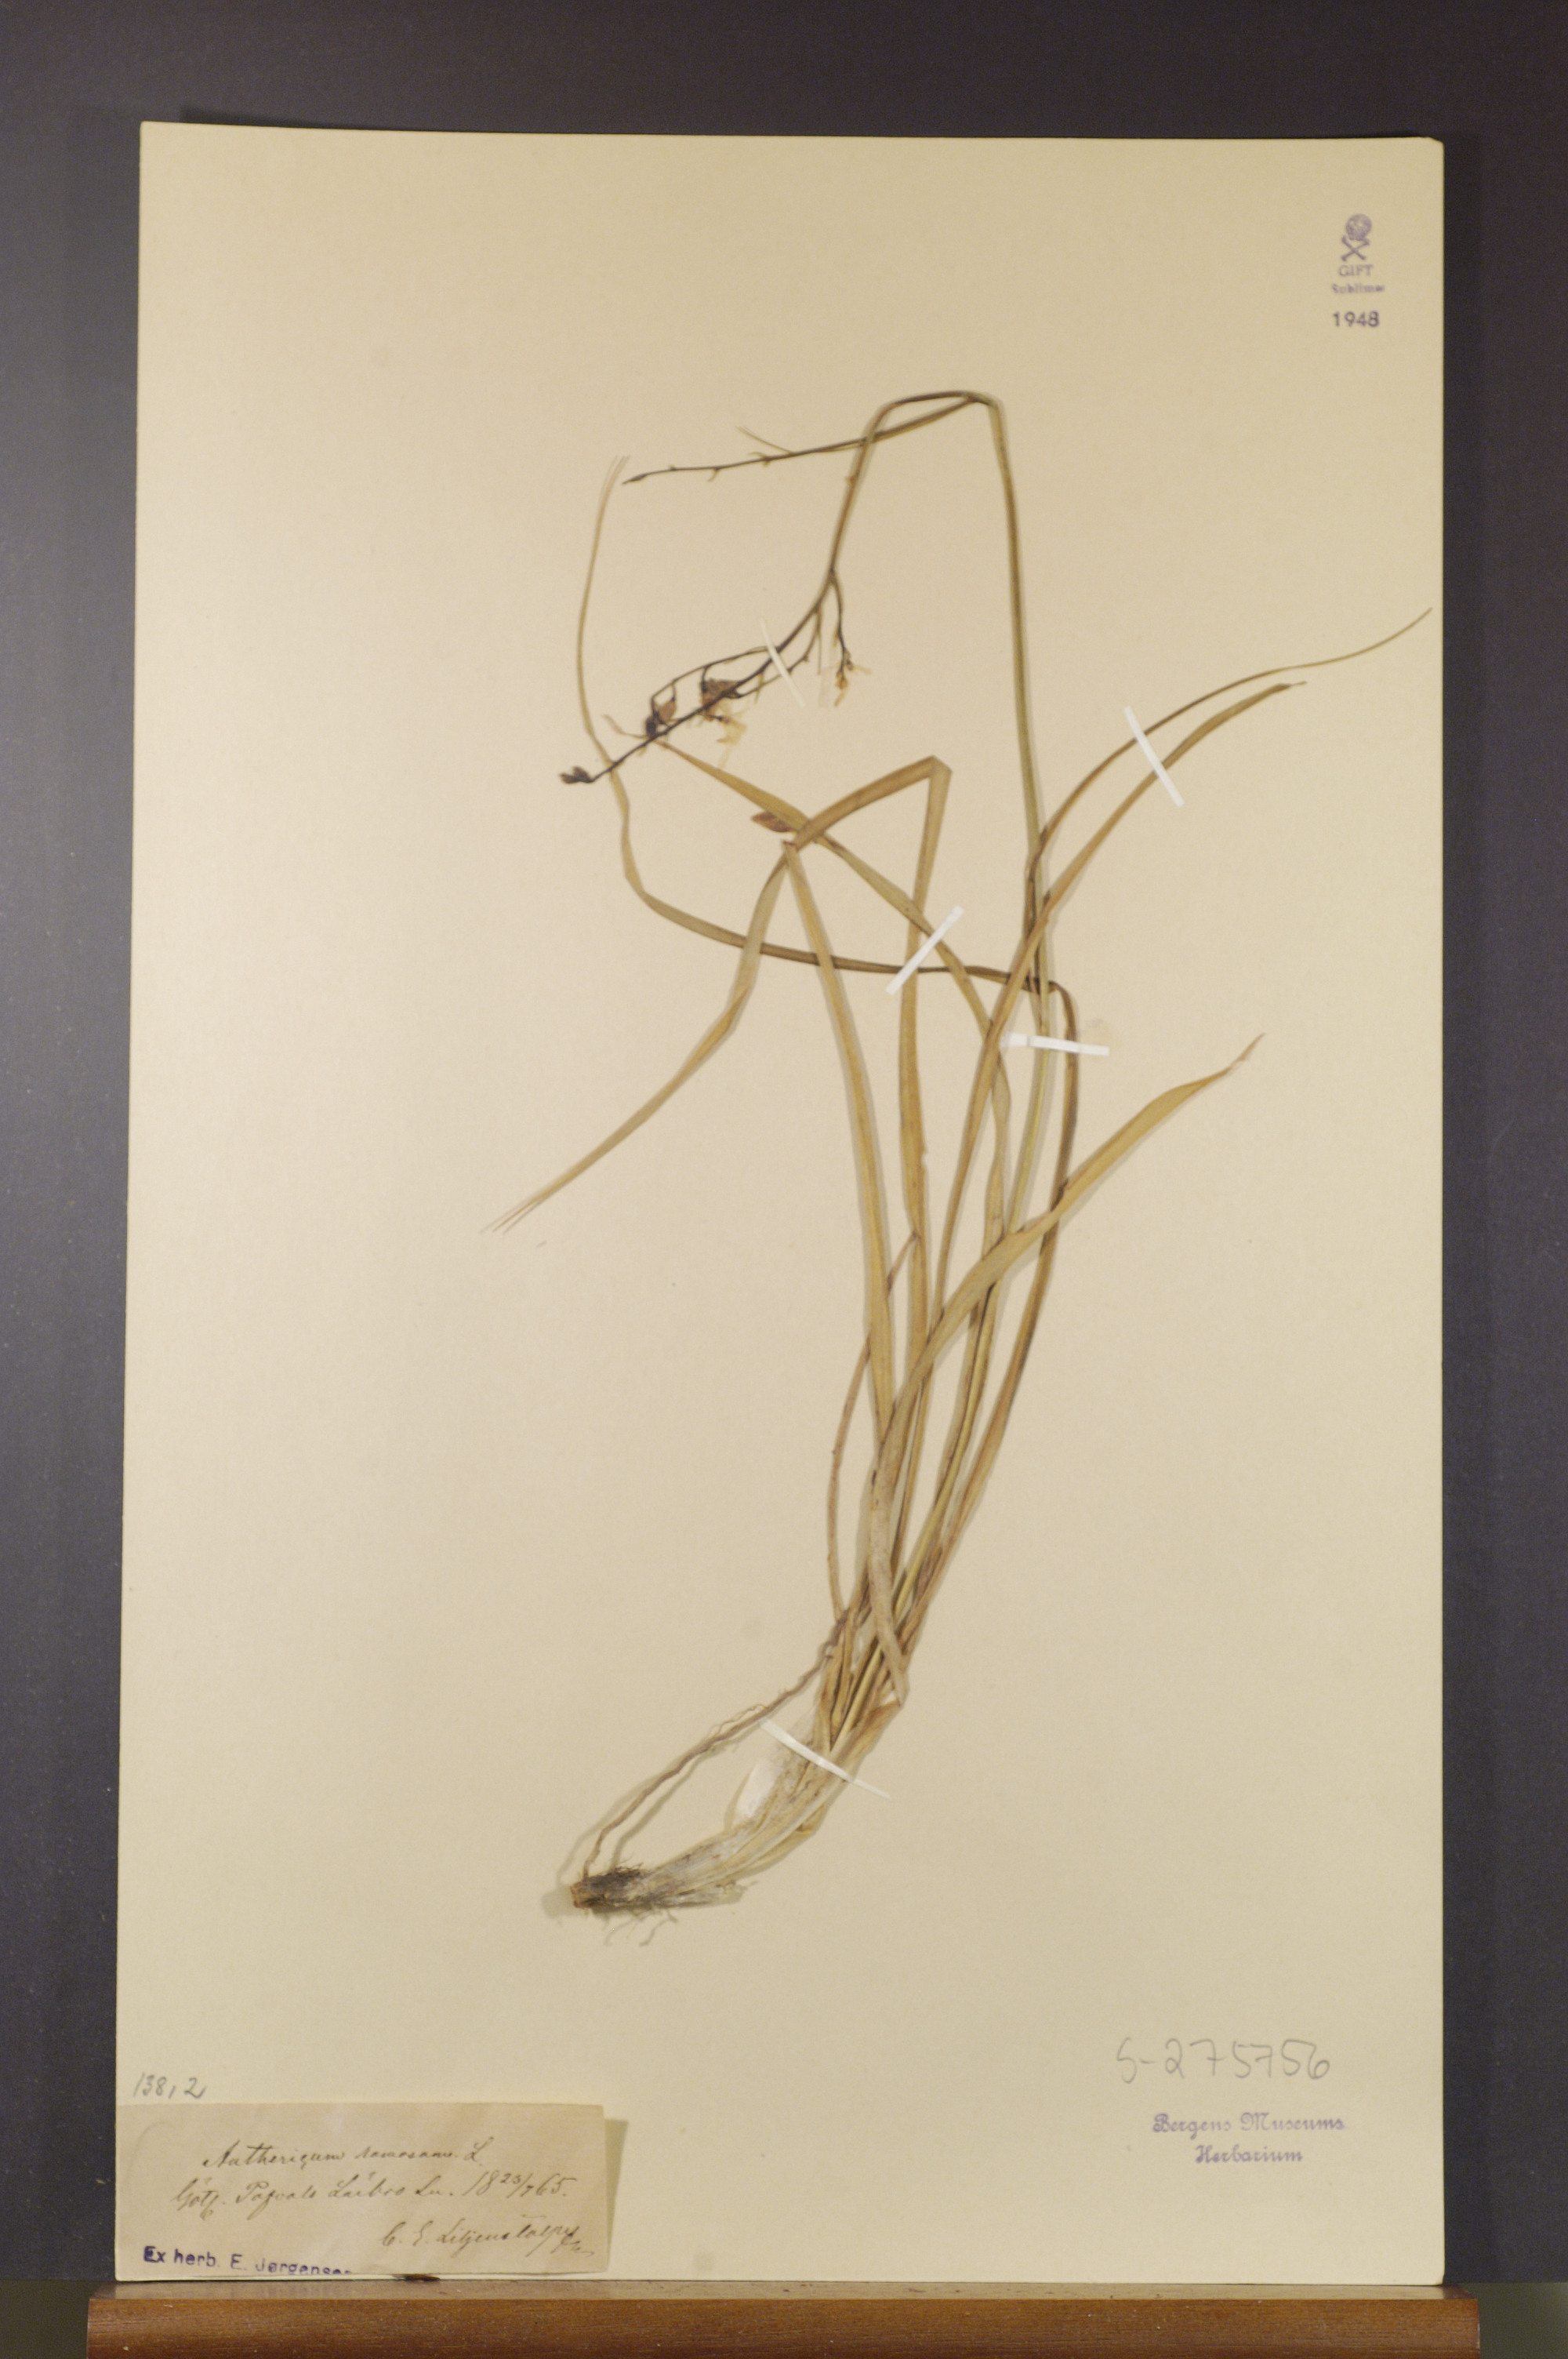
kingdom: Plantae
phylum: Tracheophyta
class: Liliopsida
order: Asparagales
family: Asparagaceae
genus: Anthericum
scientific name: Anthericum ramosum
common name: Branched st. bernard's-lily
